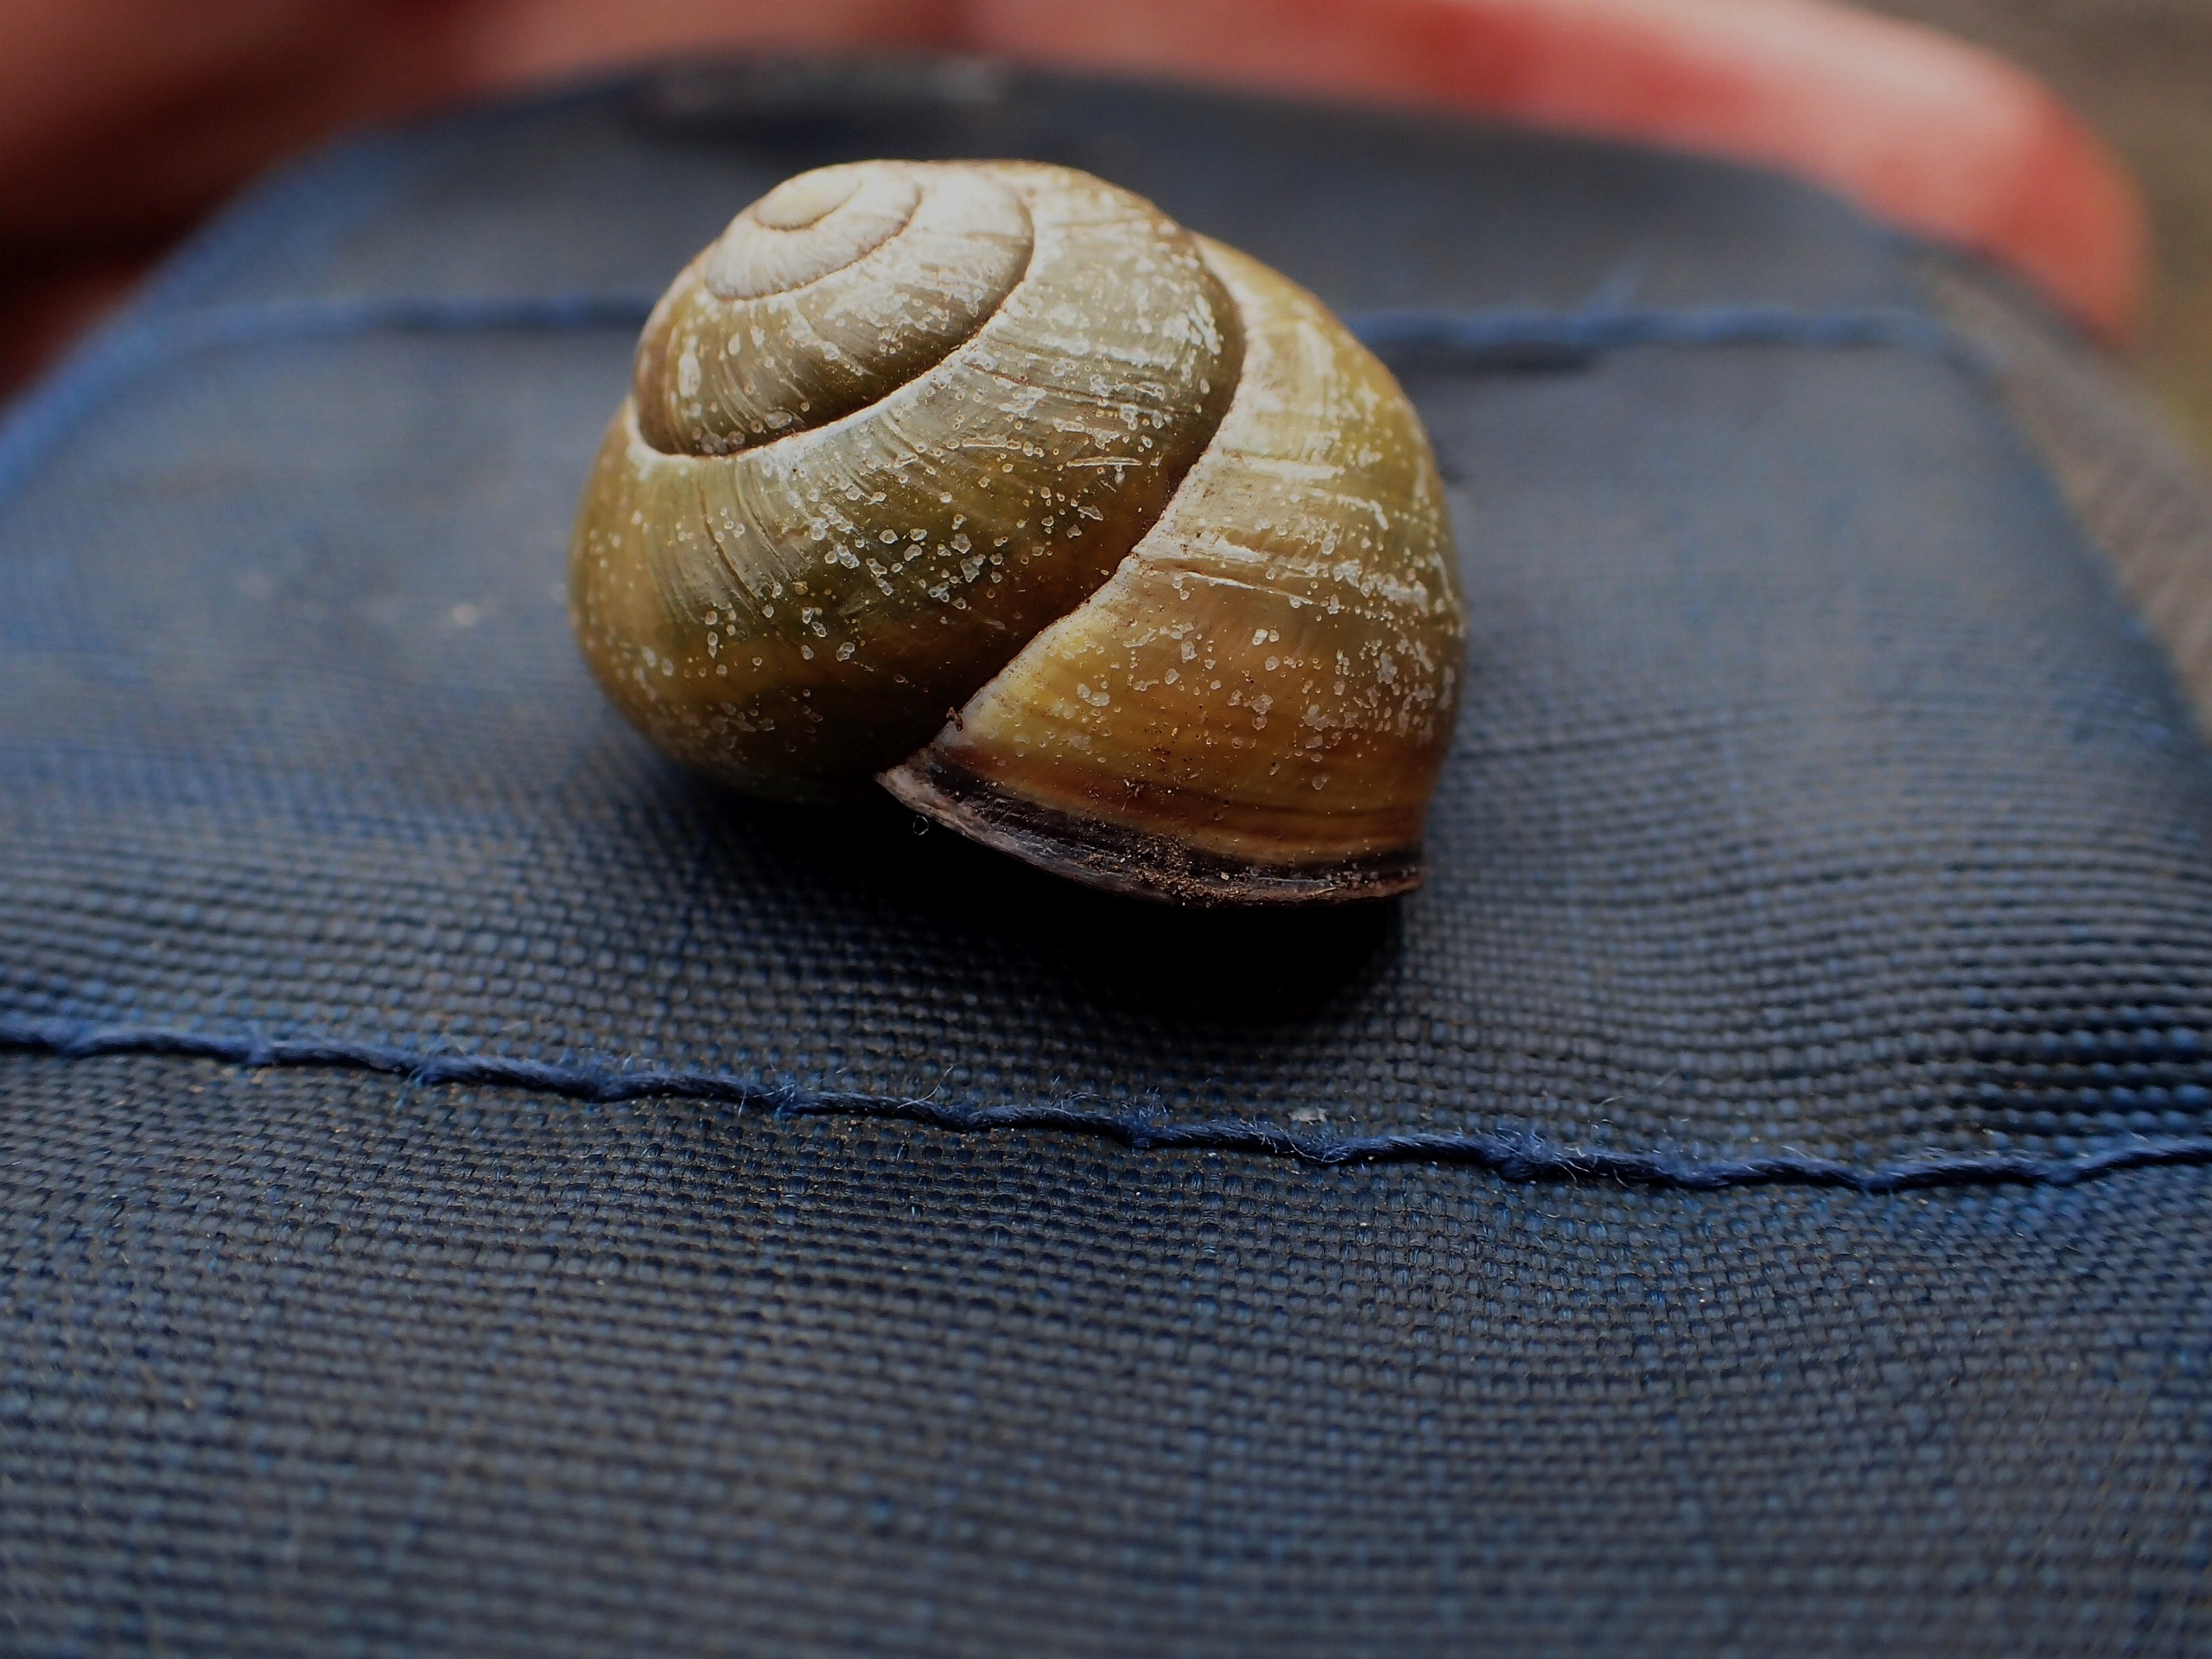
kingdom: Animalia
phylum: Mollusca
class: Gastropoda
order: Stylommatophora
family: Helicidae
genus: Cepaea
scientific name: Cepaea nemoralis
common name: Lundsnegl
